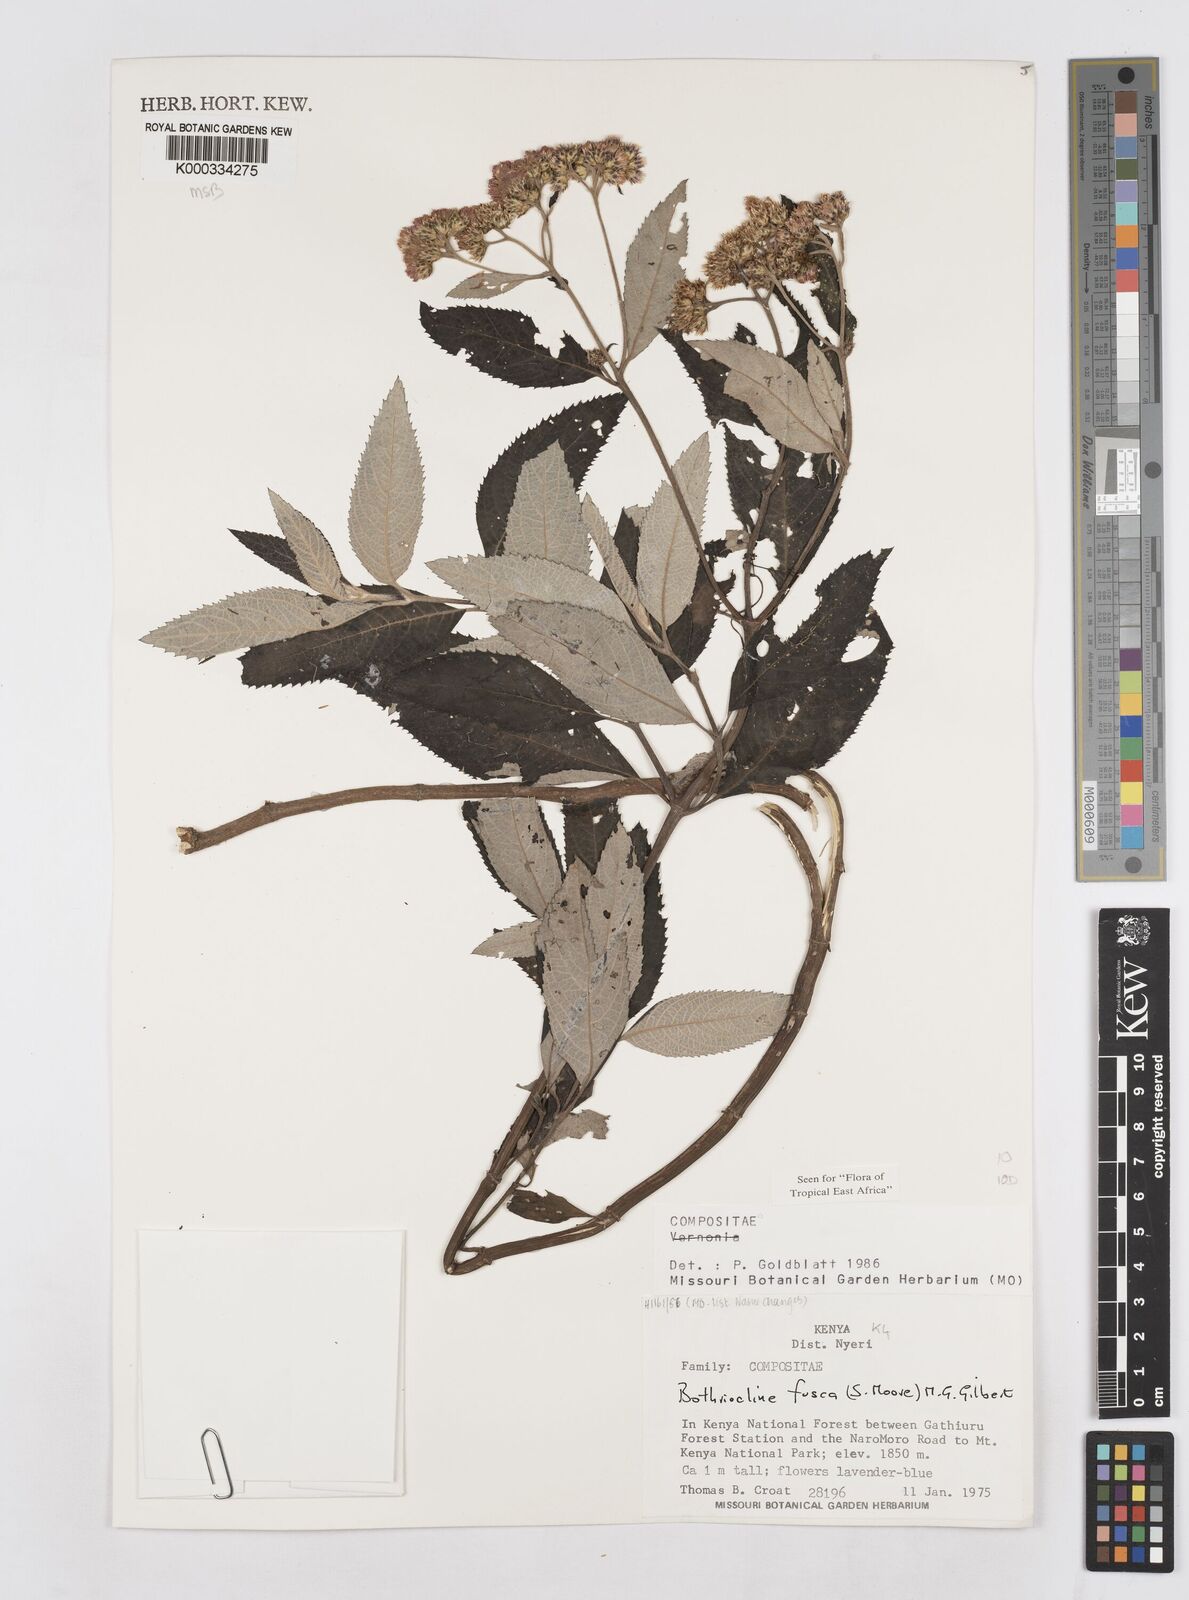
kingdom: Plantae
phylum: Tracheophyta
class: Magnoliopsida
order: Asterales
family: Asteraceae
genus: Bothriocline
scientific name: Bothriocline fusca
